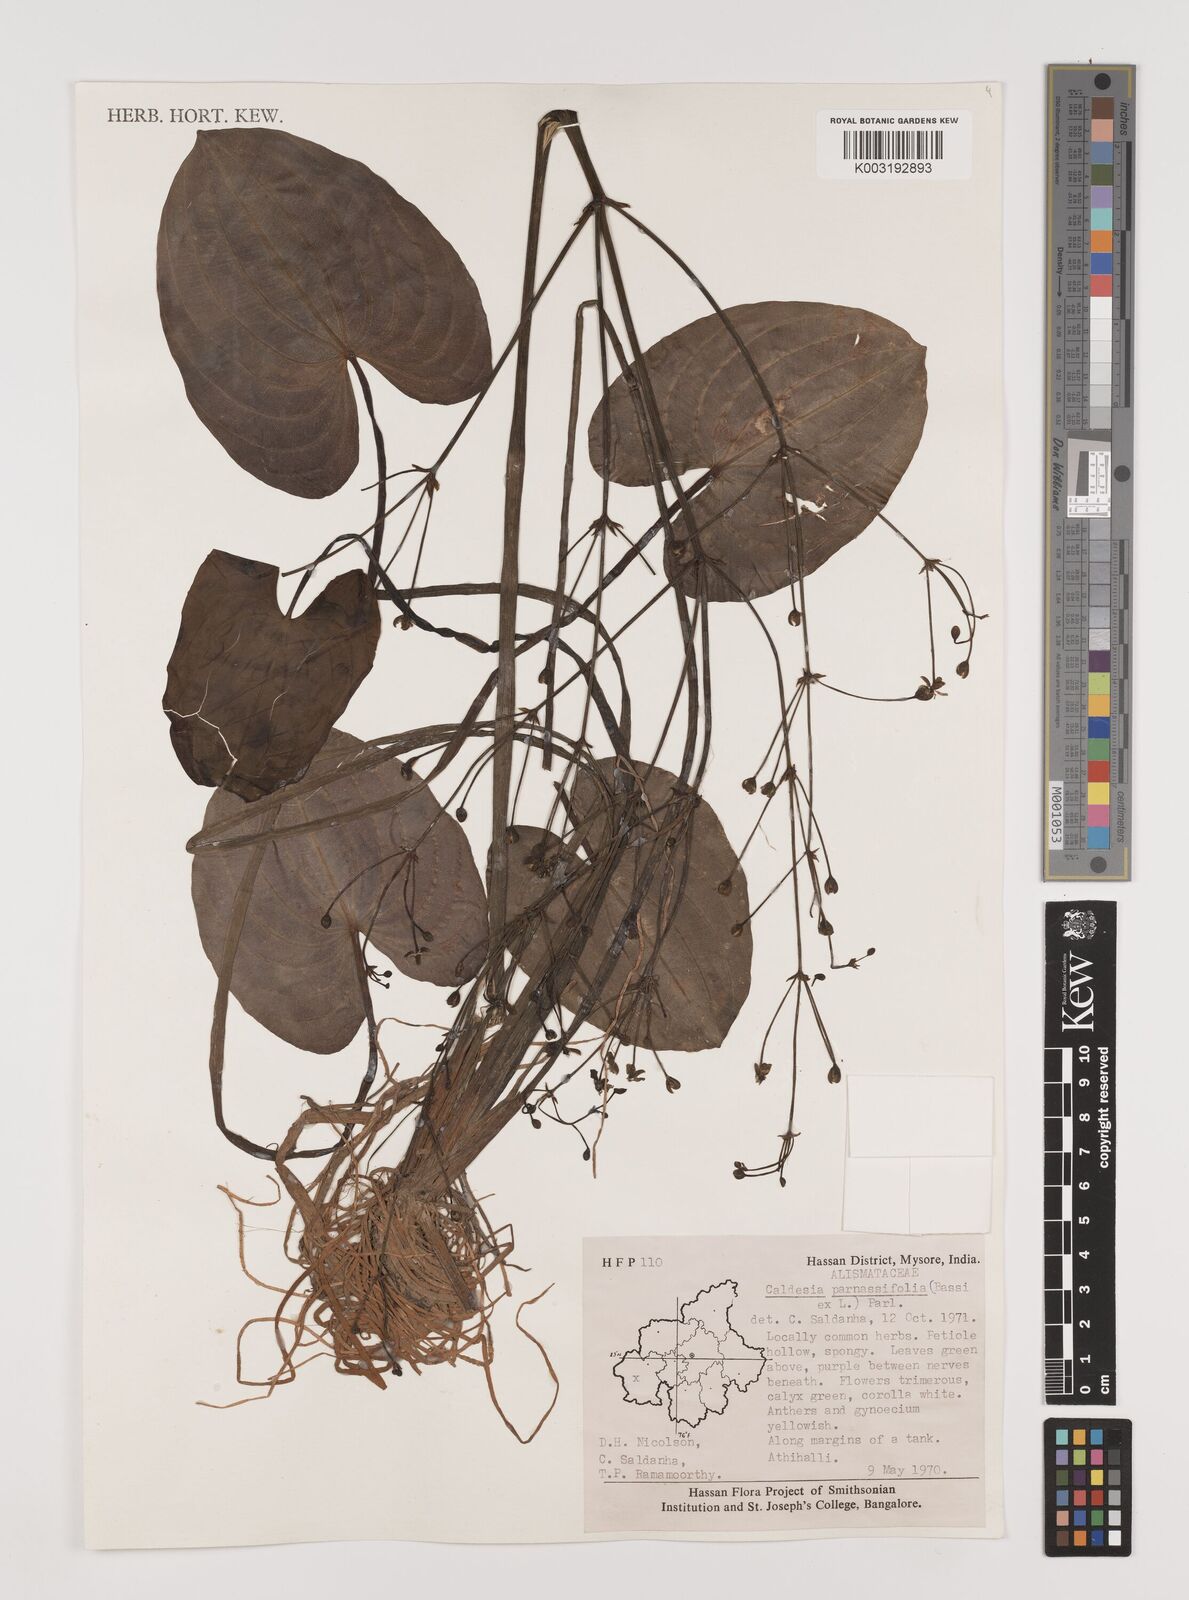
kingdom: Plantae
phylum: Tracheophyta
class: Liliopsida
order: Alismatales
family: Alismataceae
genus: Caldesia
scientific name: Caldesia parnassifolia
